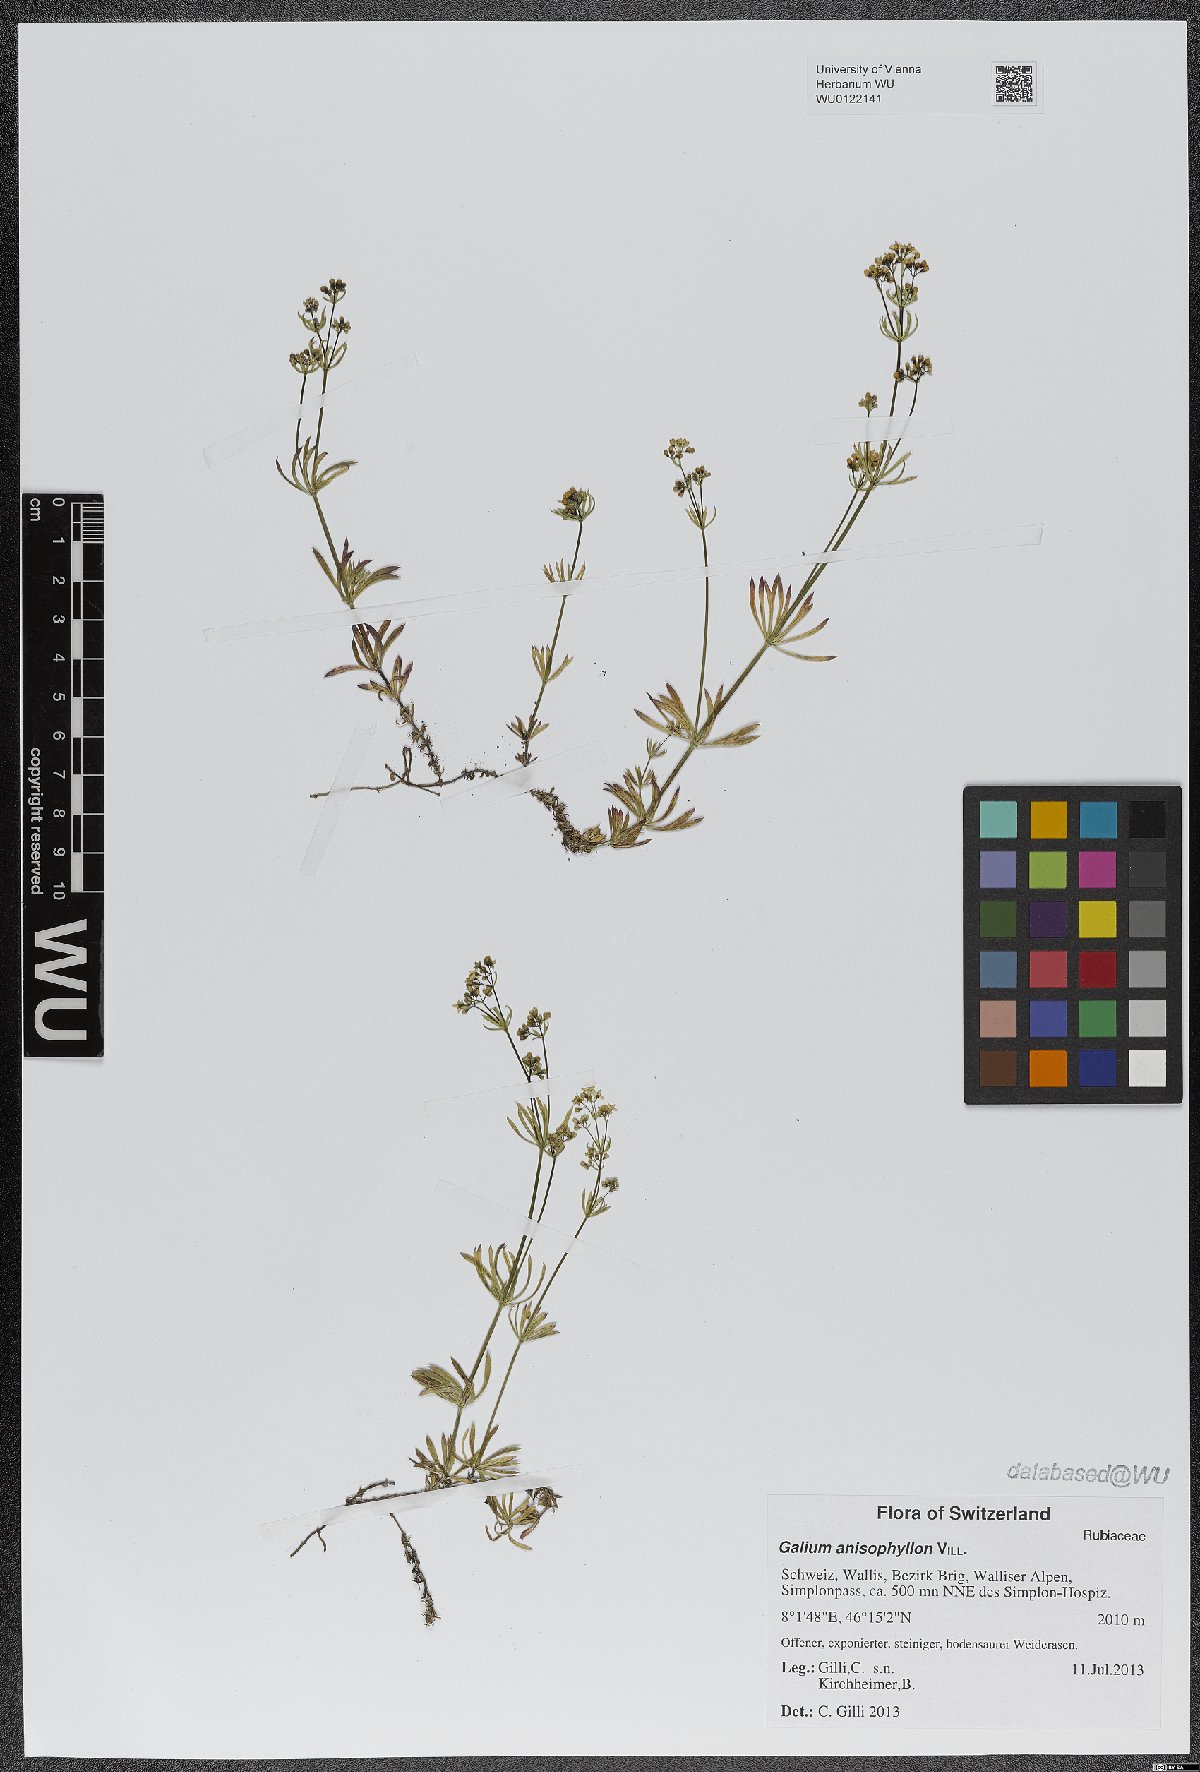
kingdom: Plantae
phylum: Tracheophyta
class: Magnoliopsida
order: Gentianales
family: Rubiaceae
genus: Galium
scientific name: Galium anisophyllon
